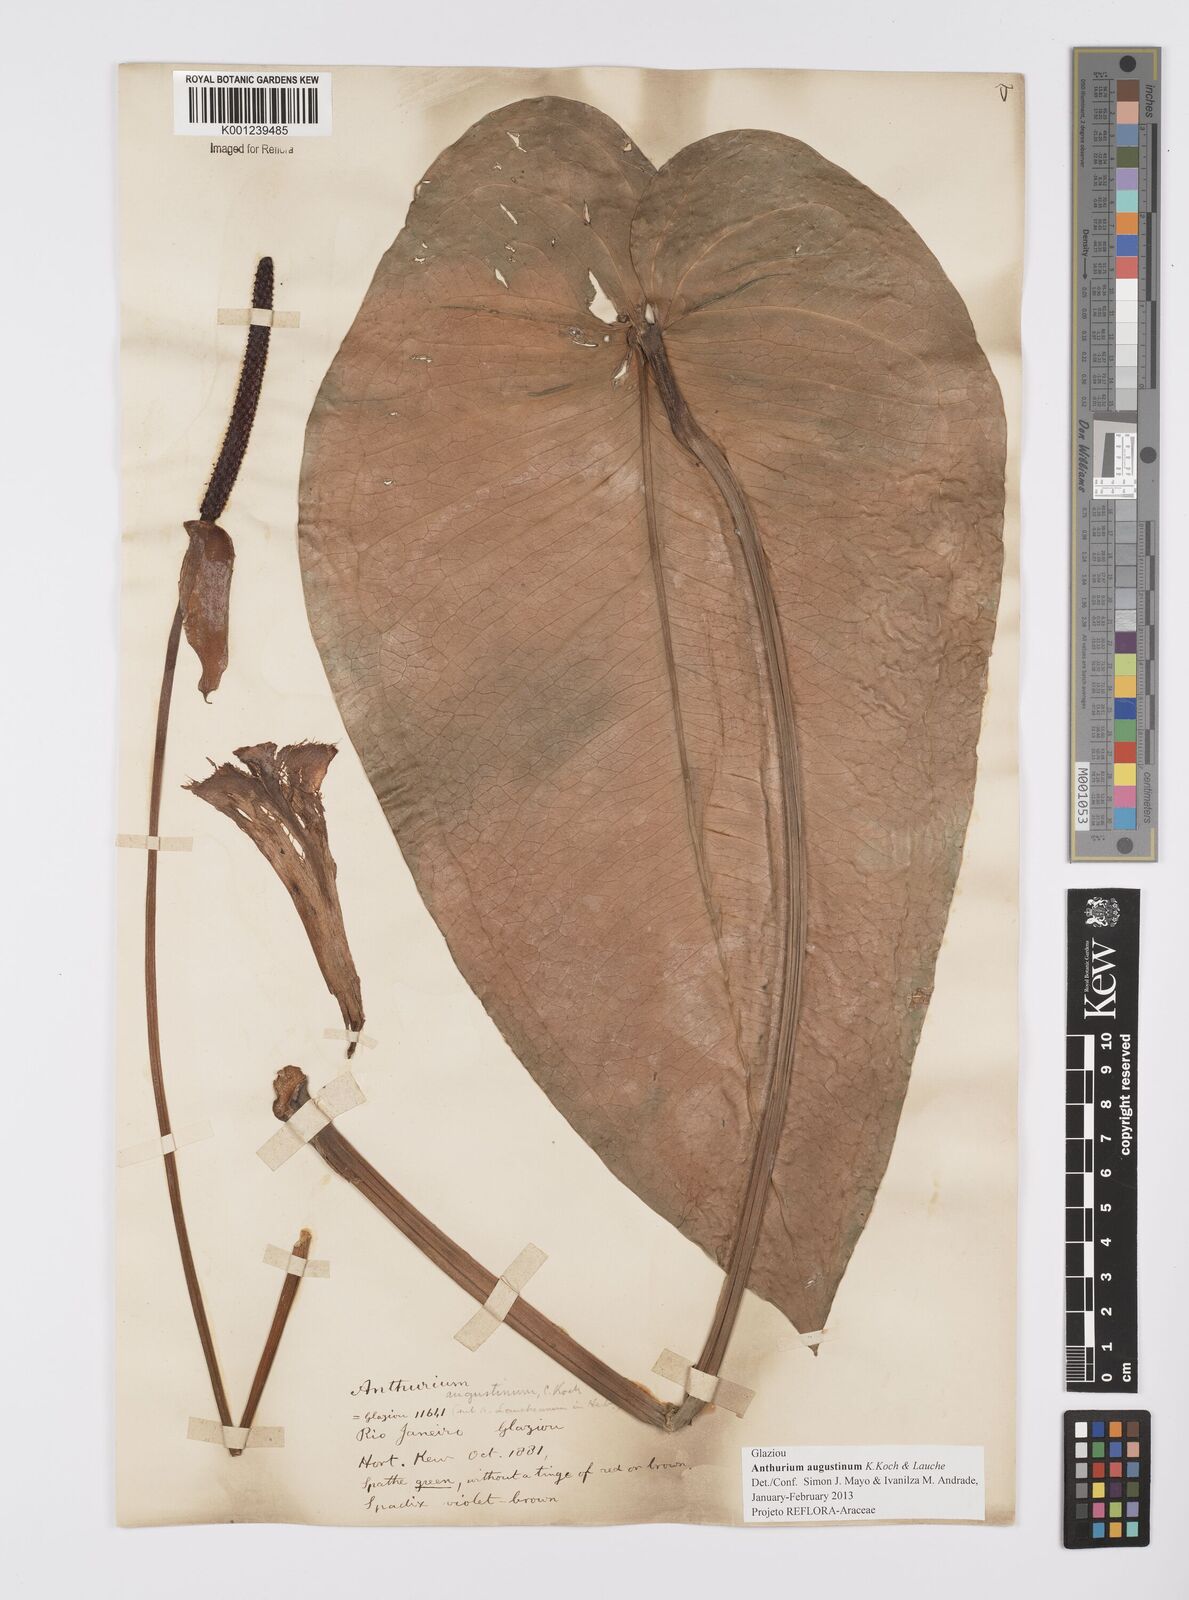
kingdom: Plantae
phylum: Tracheophyta
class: Liliopsida
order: Alismatales
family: Araceae
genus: Anthurium
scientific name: Anthurium augustinum
